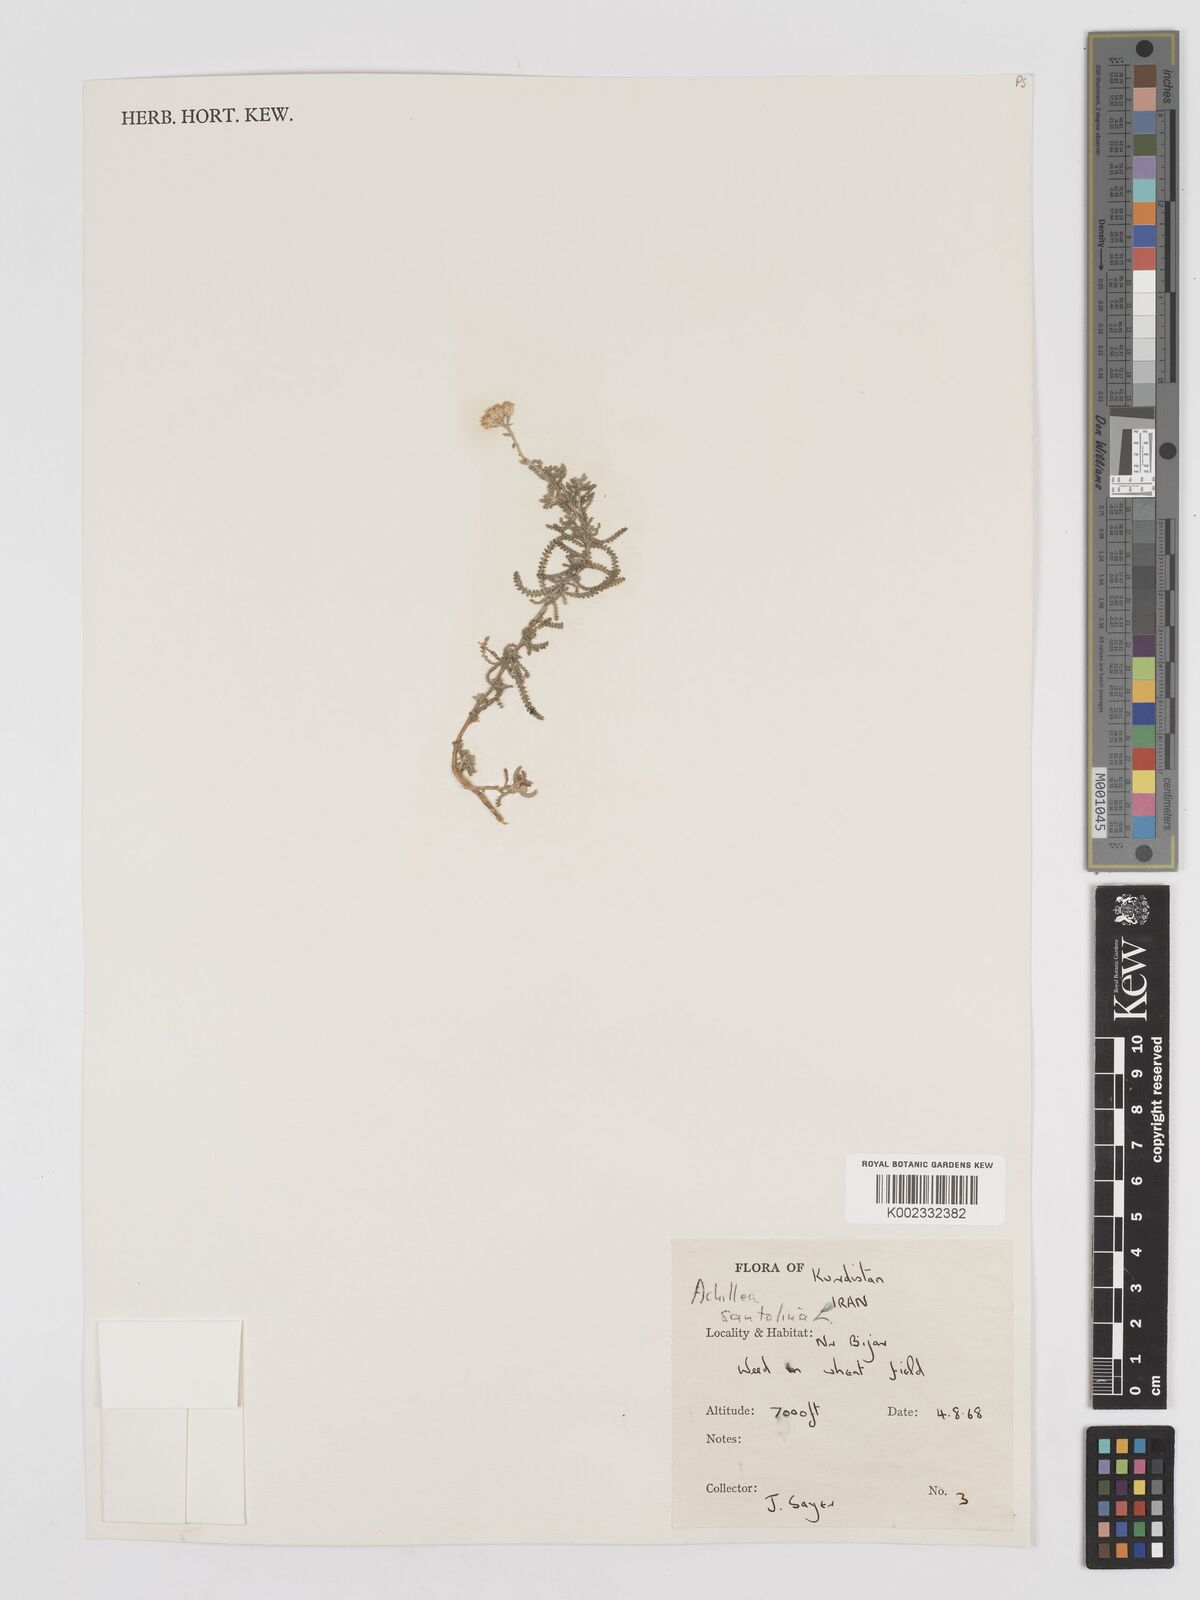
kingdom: Plantae
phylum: Tracheophyta
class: Magnoliopsida
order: Asterales
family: Asteraceae
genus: Achillea
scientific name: Achillea cretica
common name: Chamomile-leaved lavender-cotton
